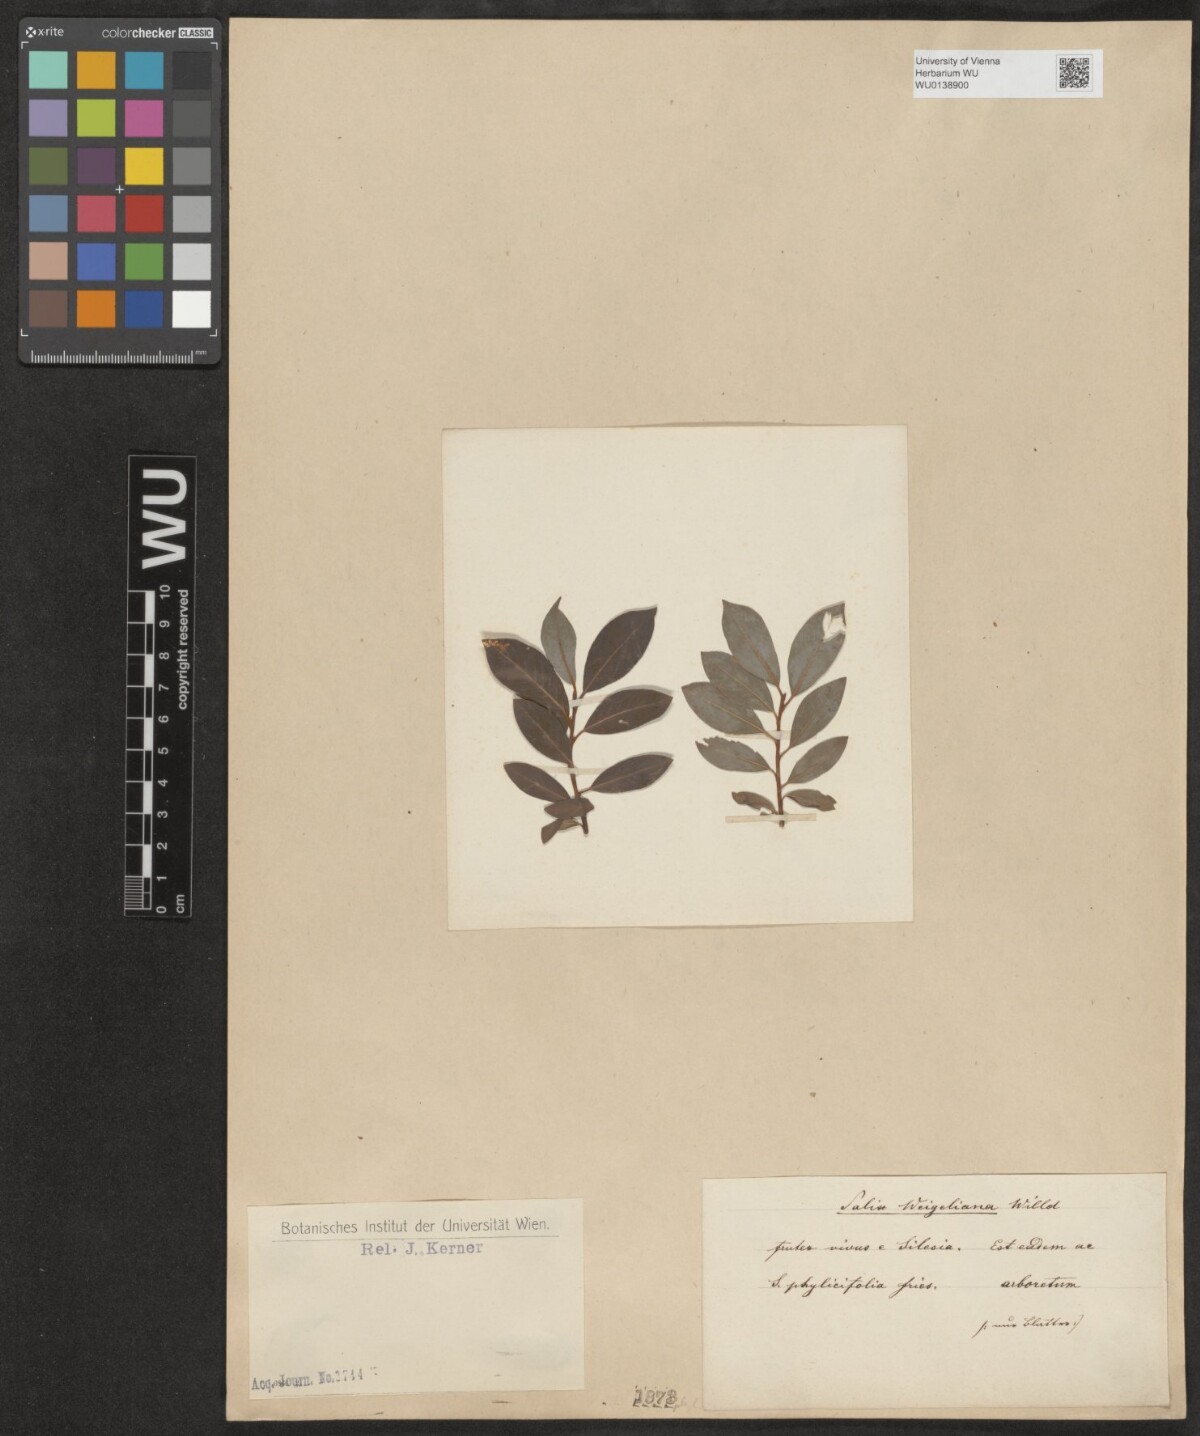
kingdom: Plantae
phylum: Tracheophyta
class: Magnoliopsida
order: Malpighiales
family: Salicaceae
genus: Salix
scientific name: Salix phylicifolia
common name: Tea-leaved willow
